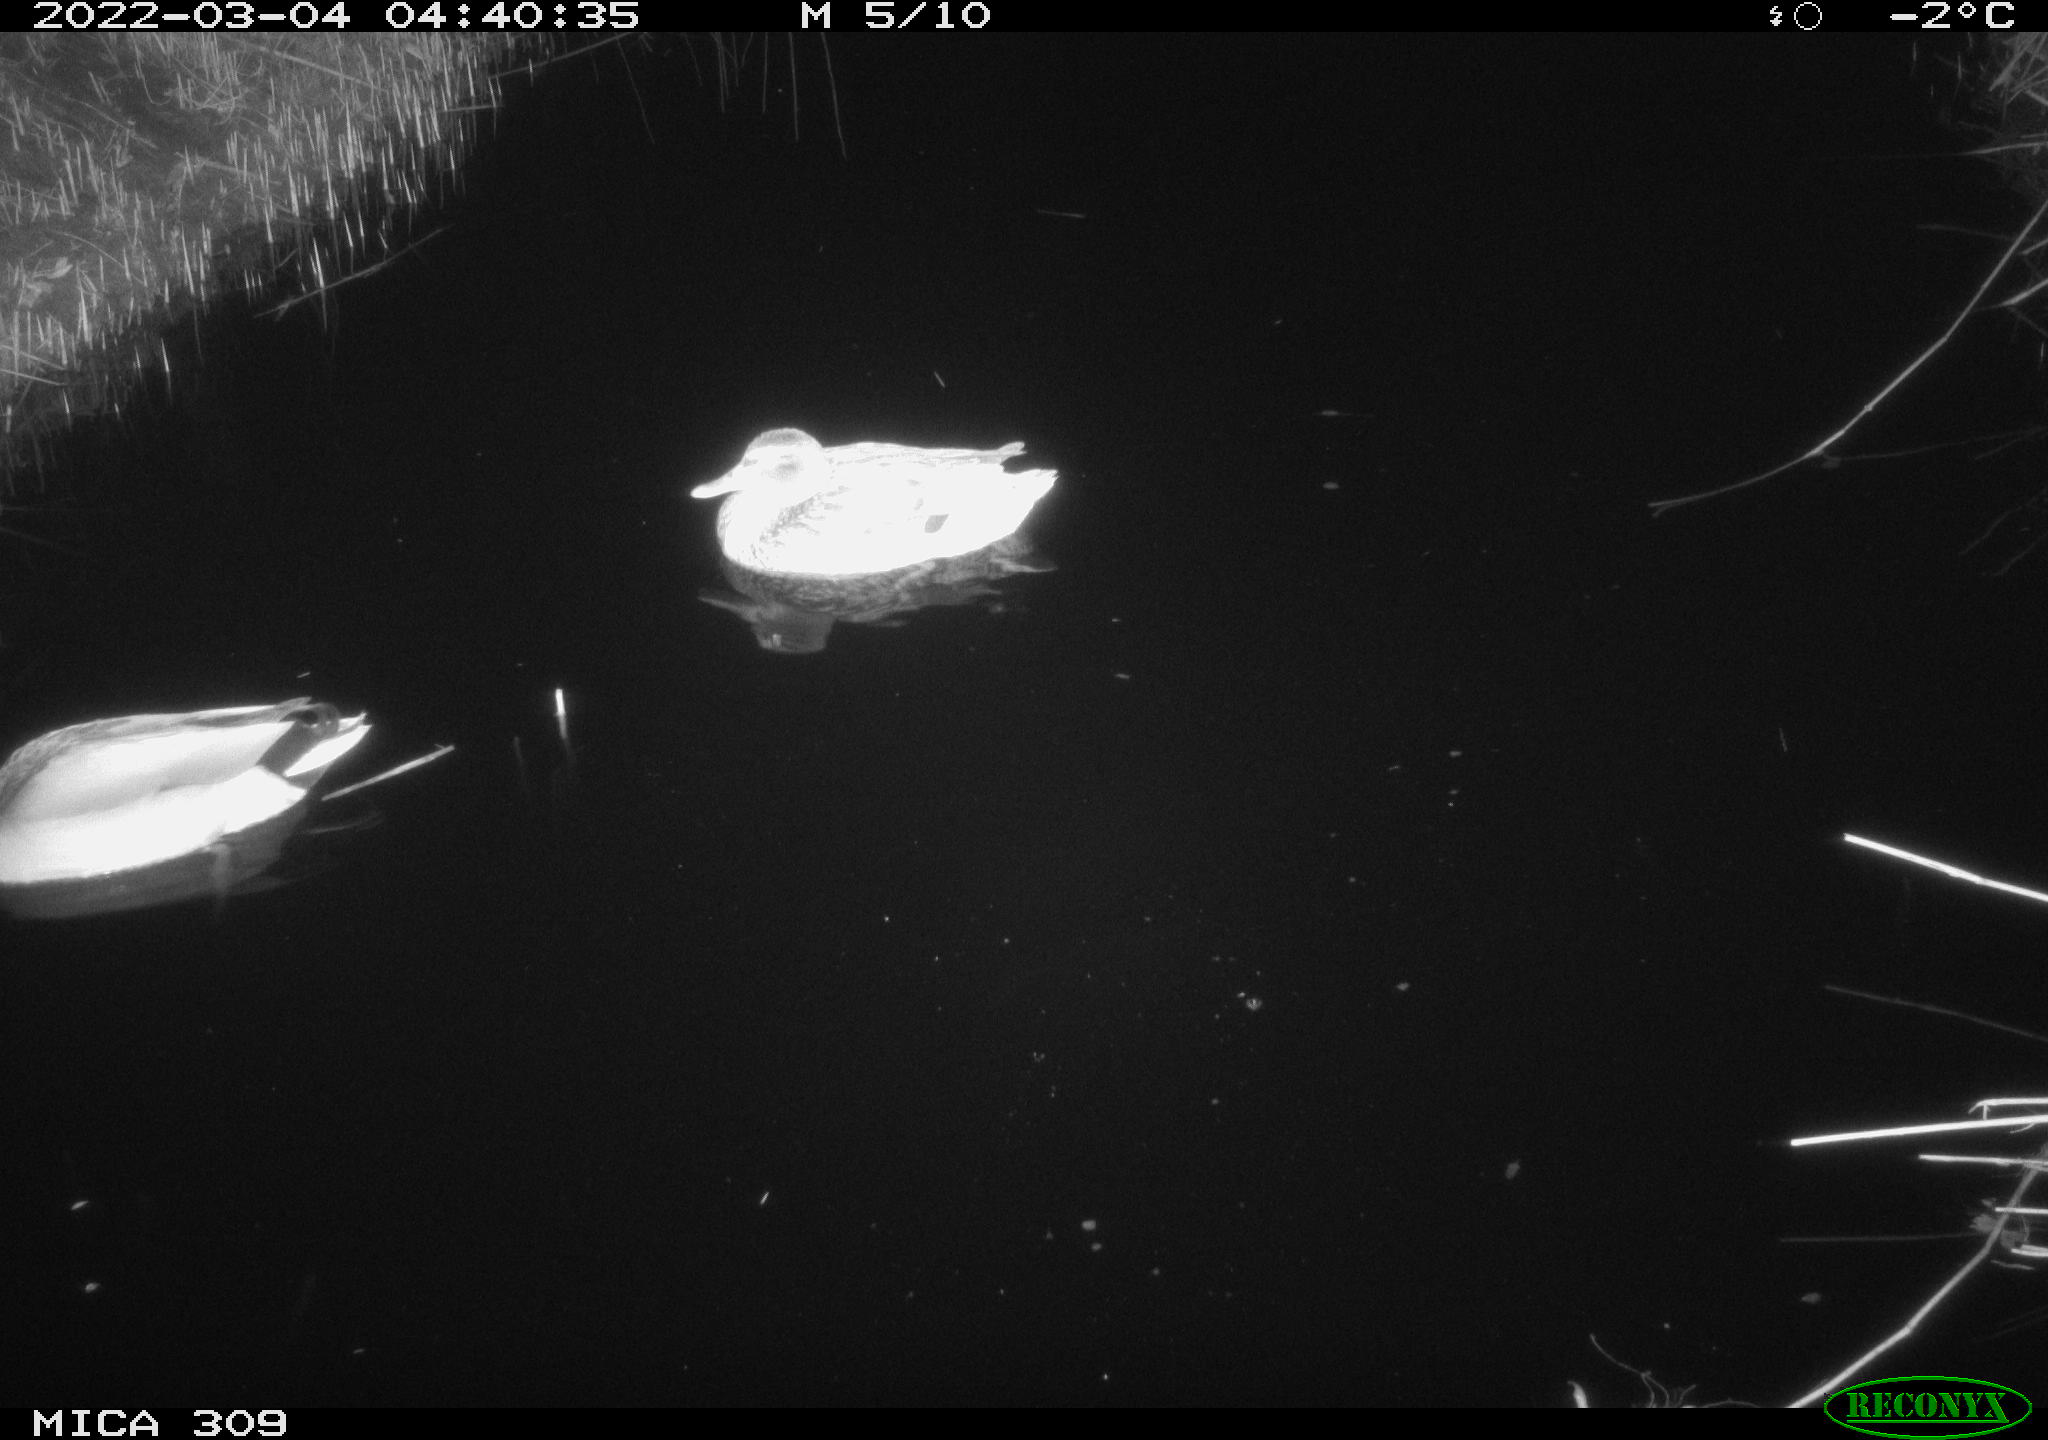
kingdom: Animalia
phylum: Chordata
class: Aves
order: Anseriformes
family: Anatidae
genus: Anas
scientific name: Anas platyrhynchos
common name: Mallard
